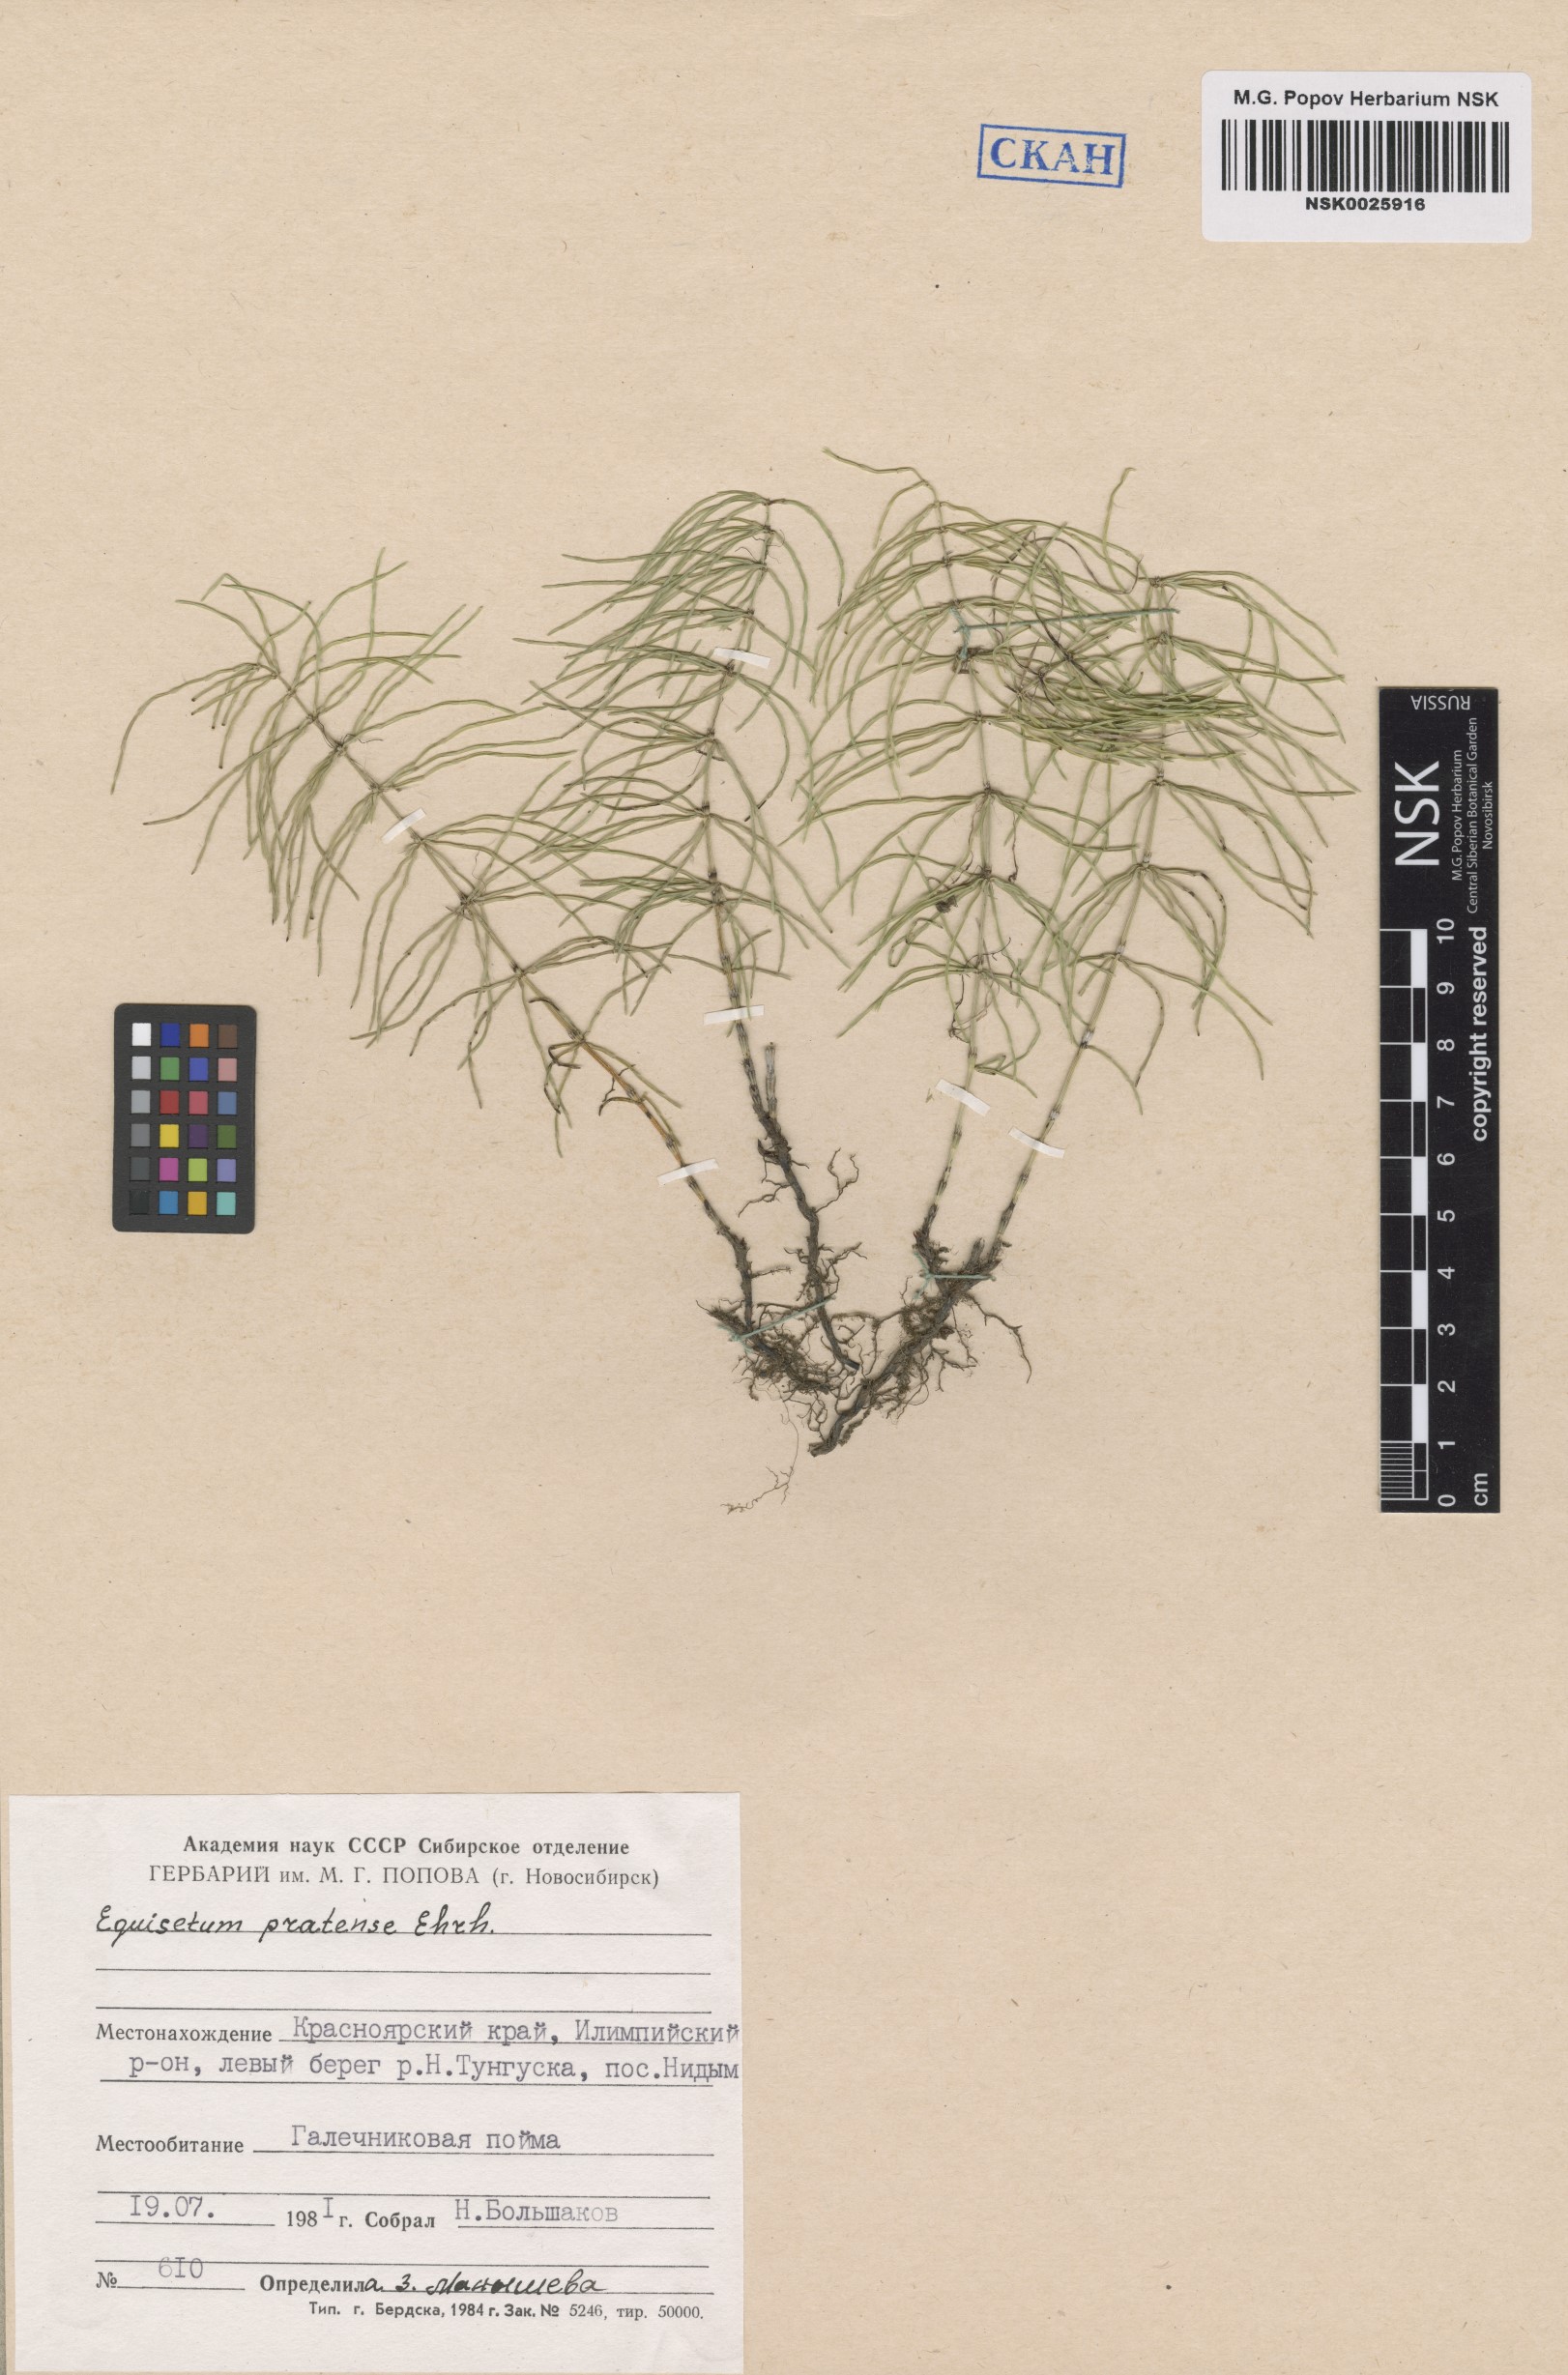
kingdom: Plantae
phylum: Tracheophyta
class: Polypodiopsida
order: Equisetales
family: Equisetaceae
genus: Equisetum
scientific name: Equisetum pratense
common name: Meadow horsetail
